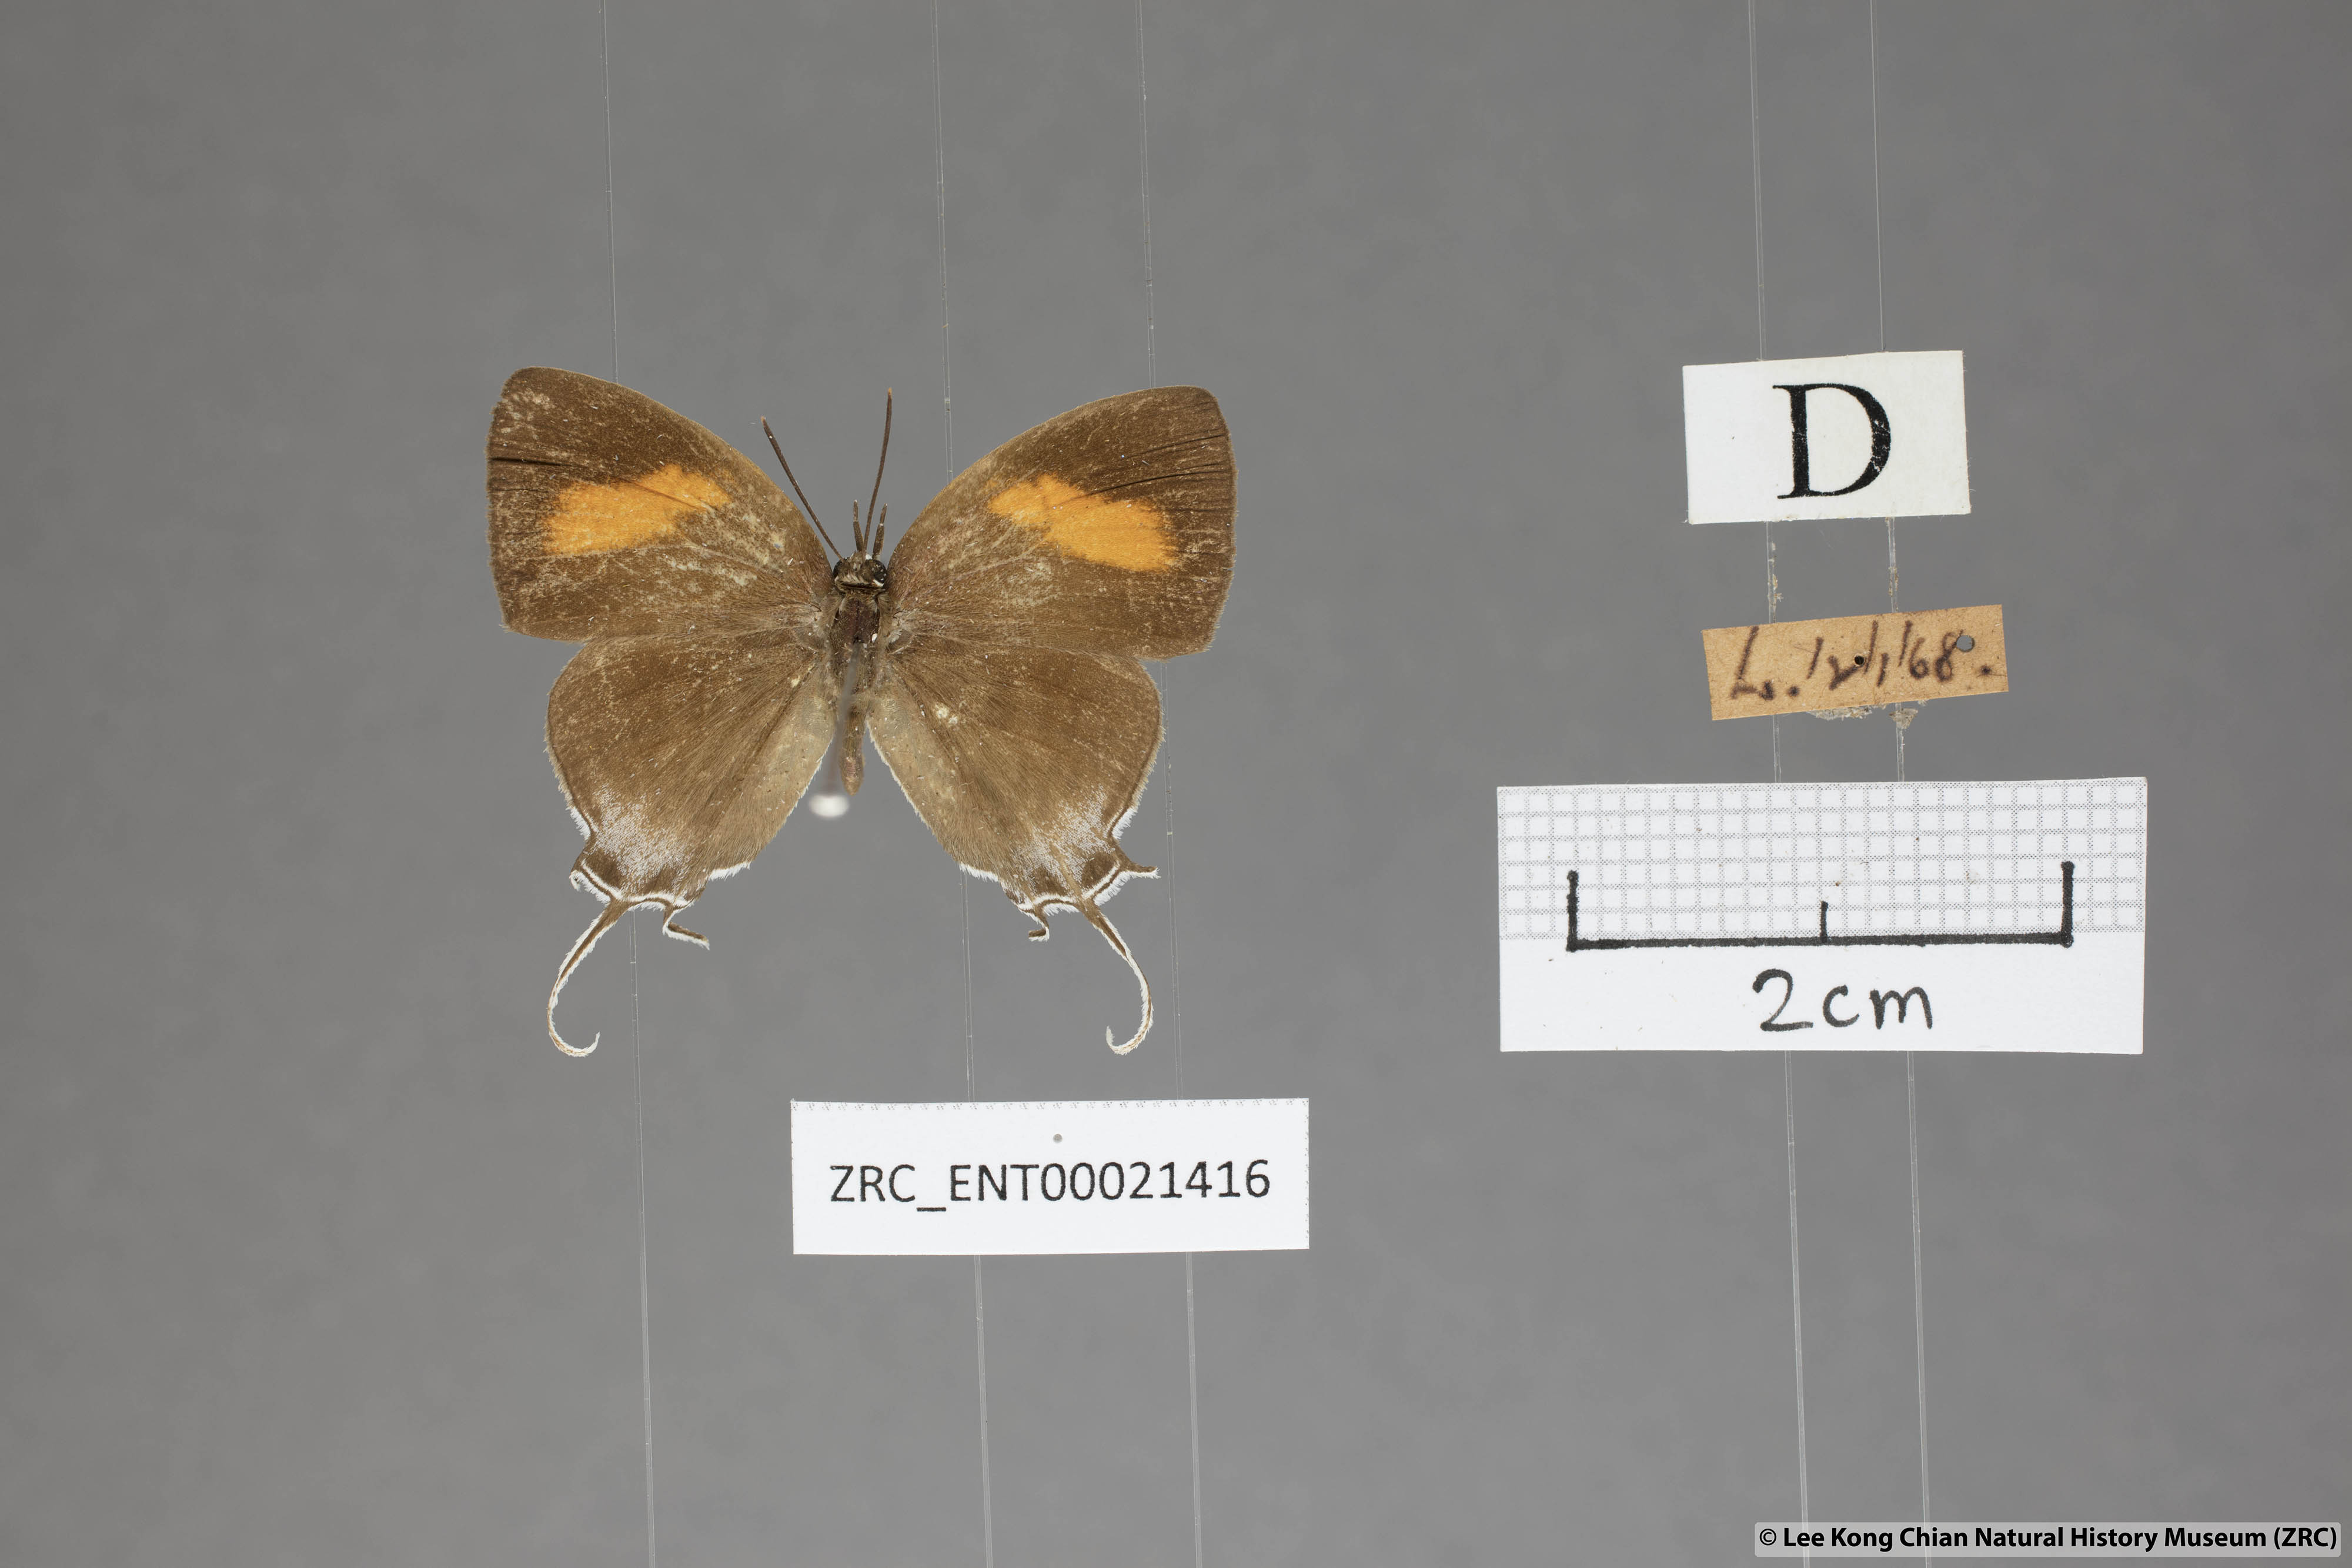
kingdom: Animalia
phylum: Arthropoda
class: Insecta
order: Lepidoptera
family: Lycaenidae
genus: Drupadia
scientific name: Drupadia theda
